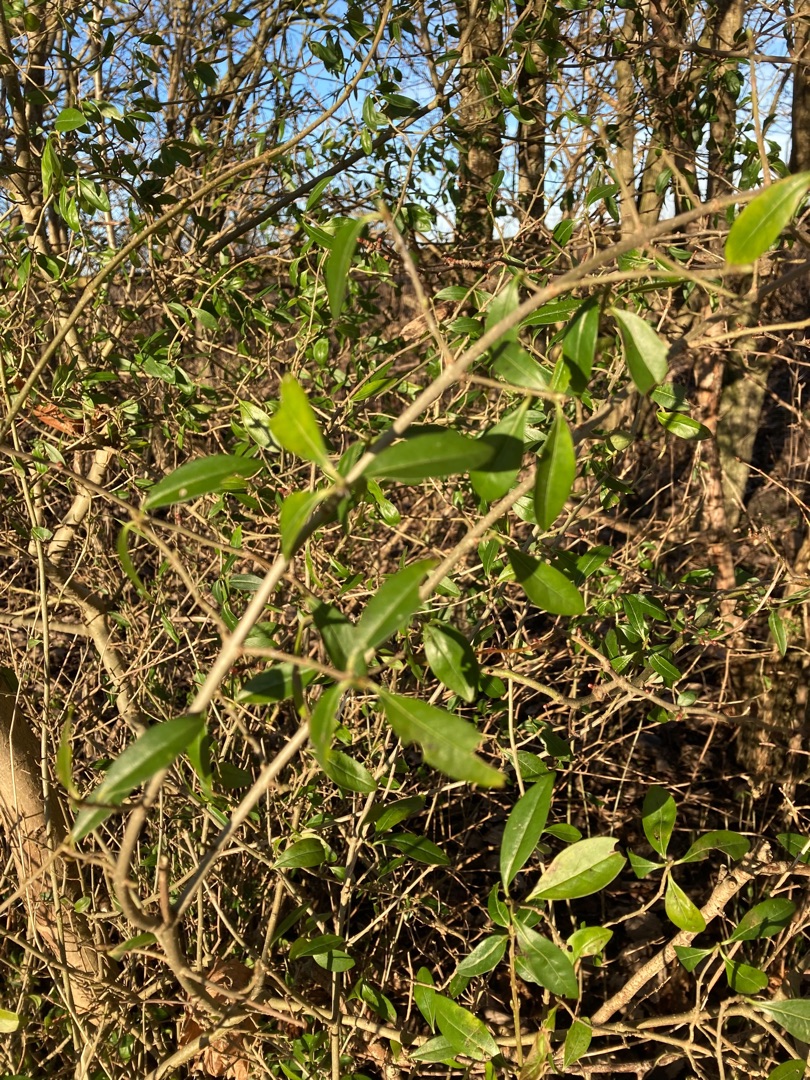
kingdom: Plantae
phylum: Tracheophyta
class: Magnoliopsida
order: Lamiales
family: Oleaceae
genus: Ligustrum
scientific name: Ligustrum vulgare
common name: Liguster
